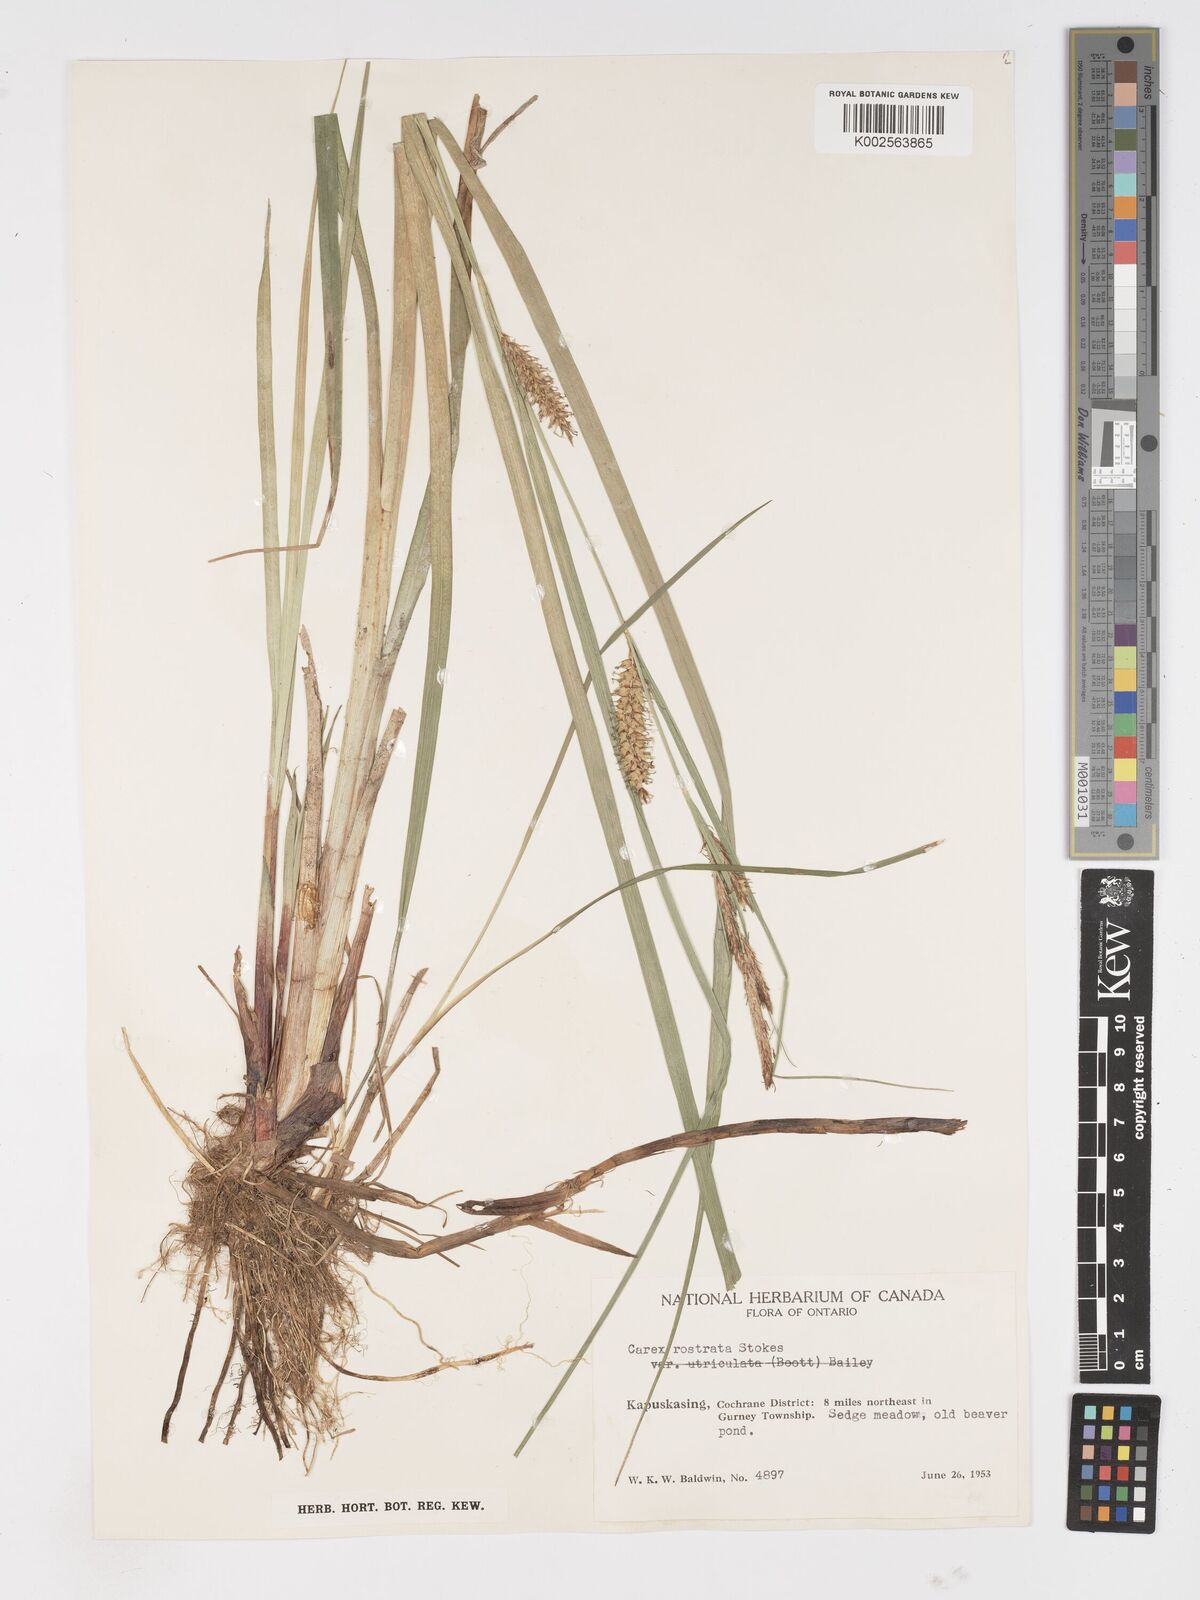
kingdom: Plantae
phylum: Tracheophyta
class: Liliopsida
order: Poales
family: Cyperaceae
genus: Carex
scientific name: Carex rostrata
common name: Bottle sedge
